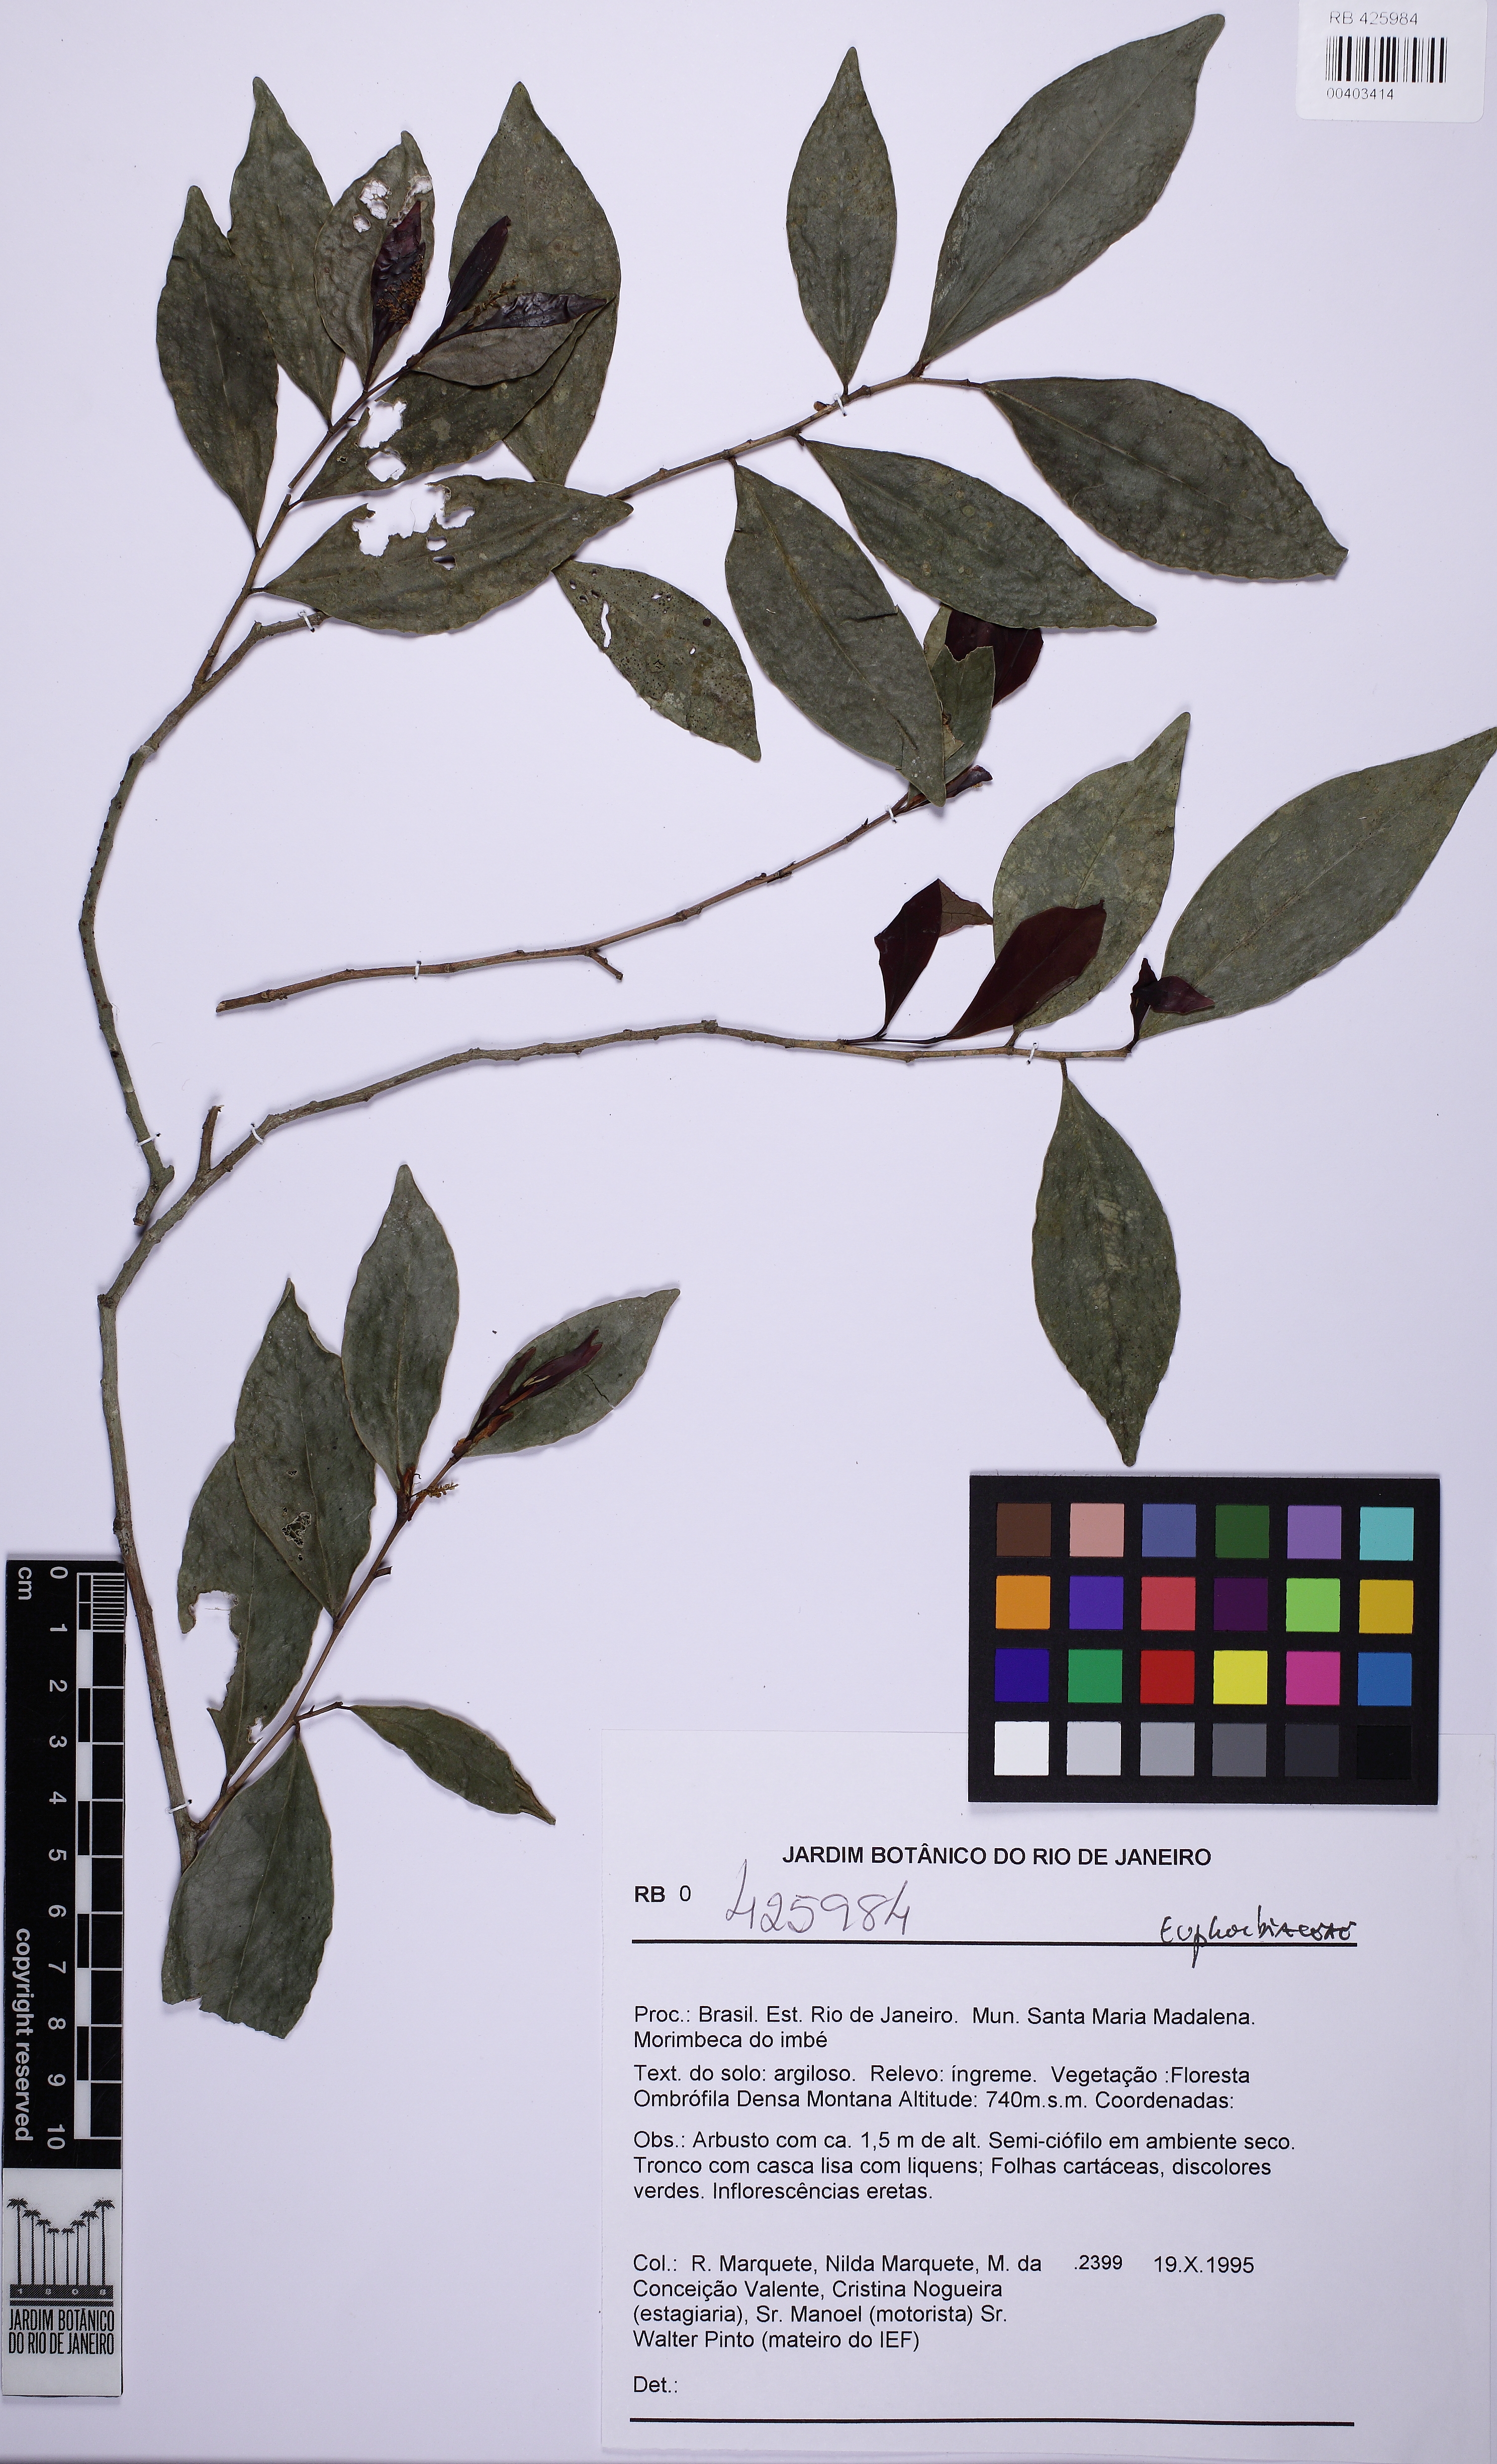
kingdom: Plantae
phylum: Tracheophyta
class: Magnoliopsida
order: Malpighiales
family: Euphorbiaceae
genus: Actinostemon
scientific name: Actinostemon
